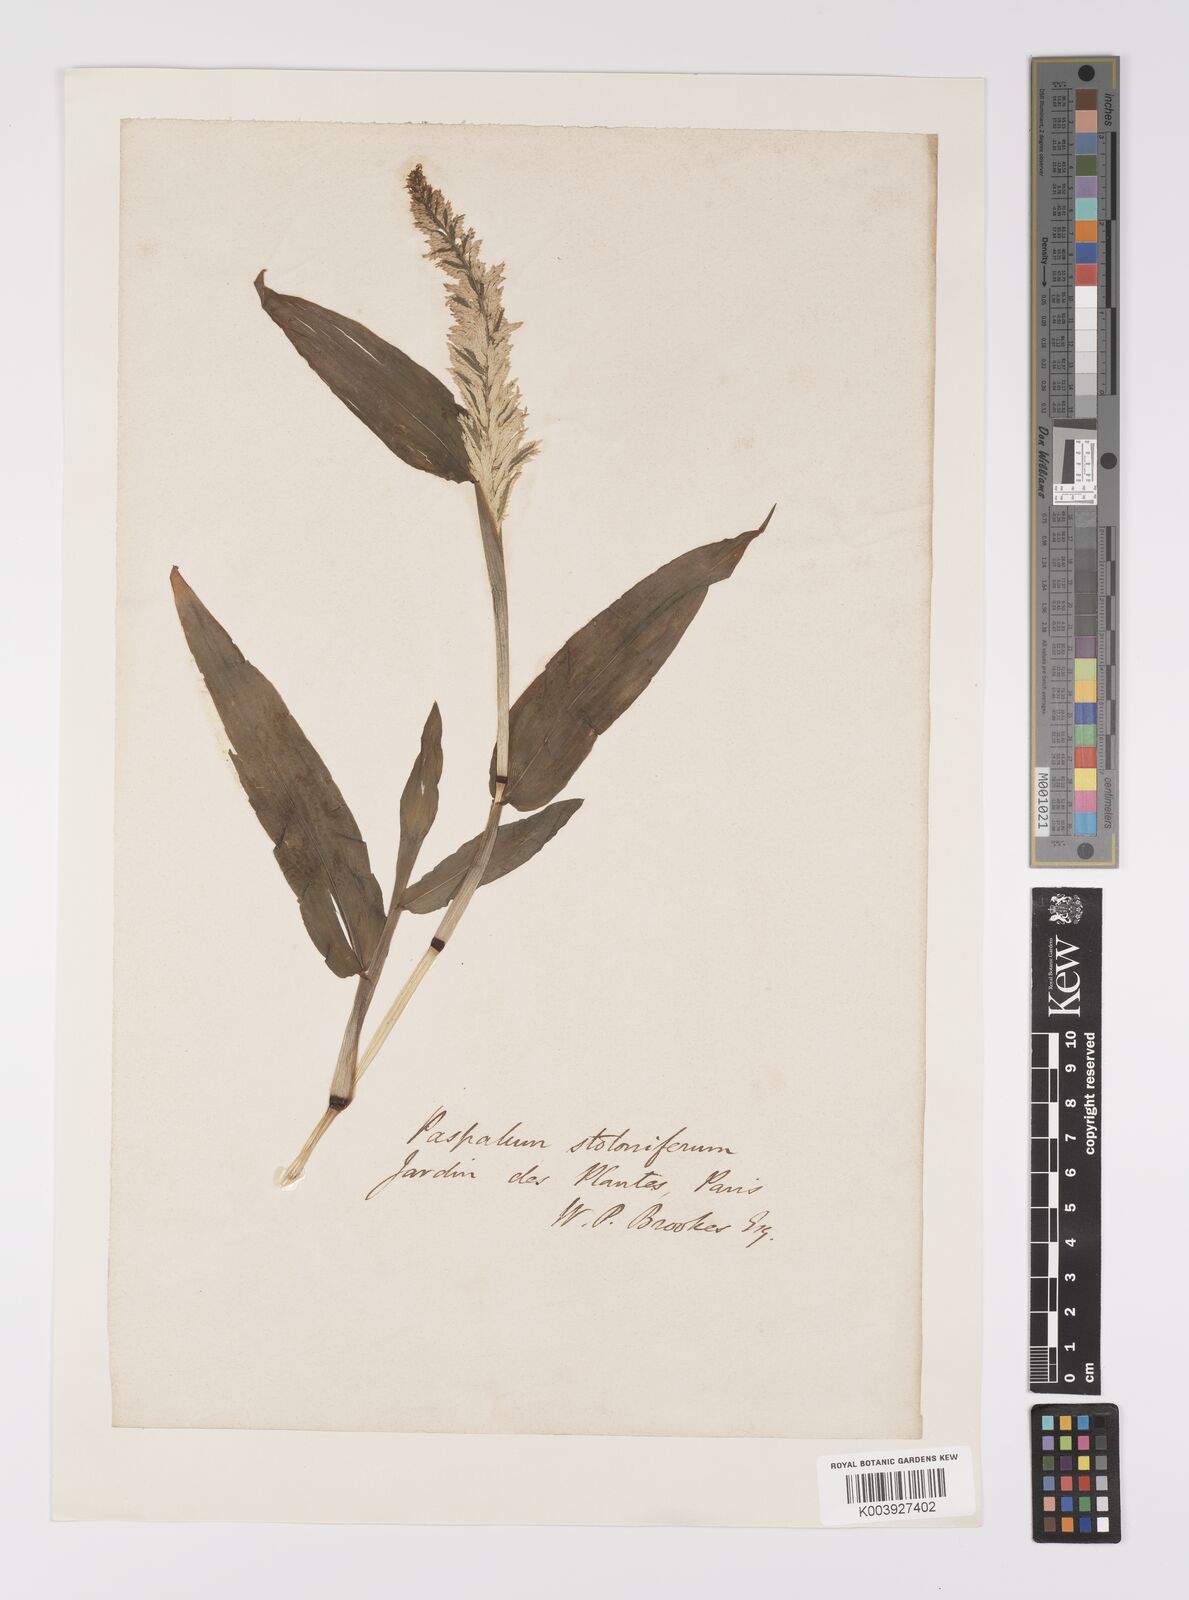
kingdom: Plantae
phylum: Tracheophyta
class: Liliopsida
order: Poales
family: Poaceae
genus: Paspalum
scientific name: Paspalum
